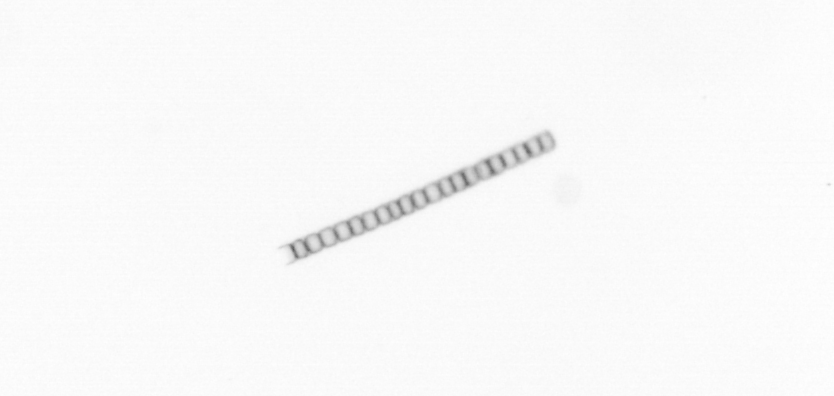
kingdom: Chromista
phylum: Ochrophyta
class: Bacillariophyceae
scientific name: Bacillariophyceae
